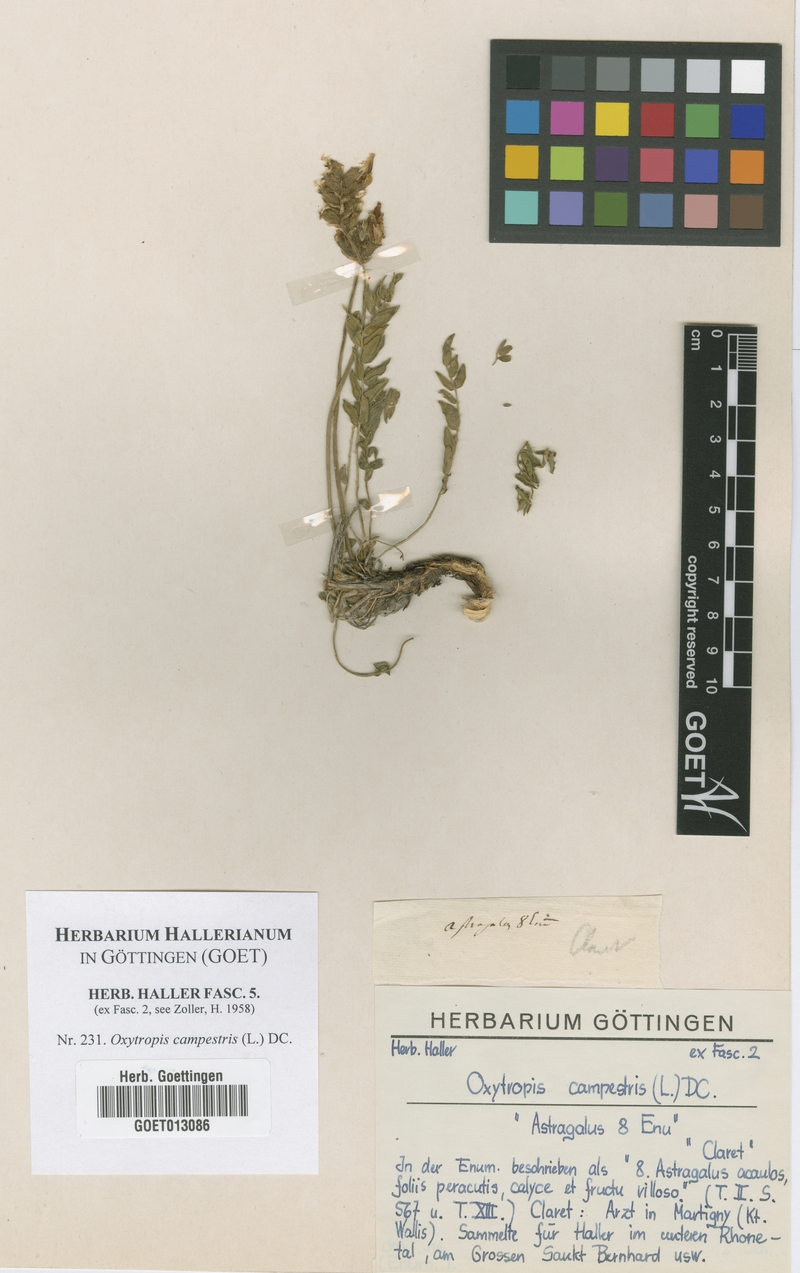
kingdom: Plantae
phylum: Tracheophyta
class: Magnoliopsida
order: Fabales
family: Fabaceae
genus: Oxytropis
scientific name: Oxytropis campestris
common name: Field locoweed
